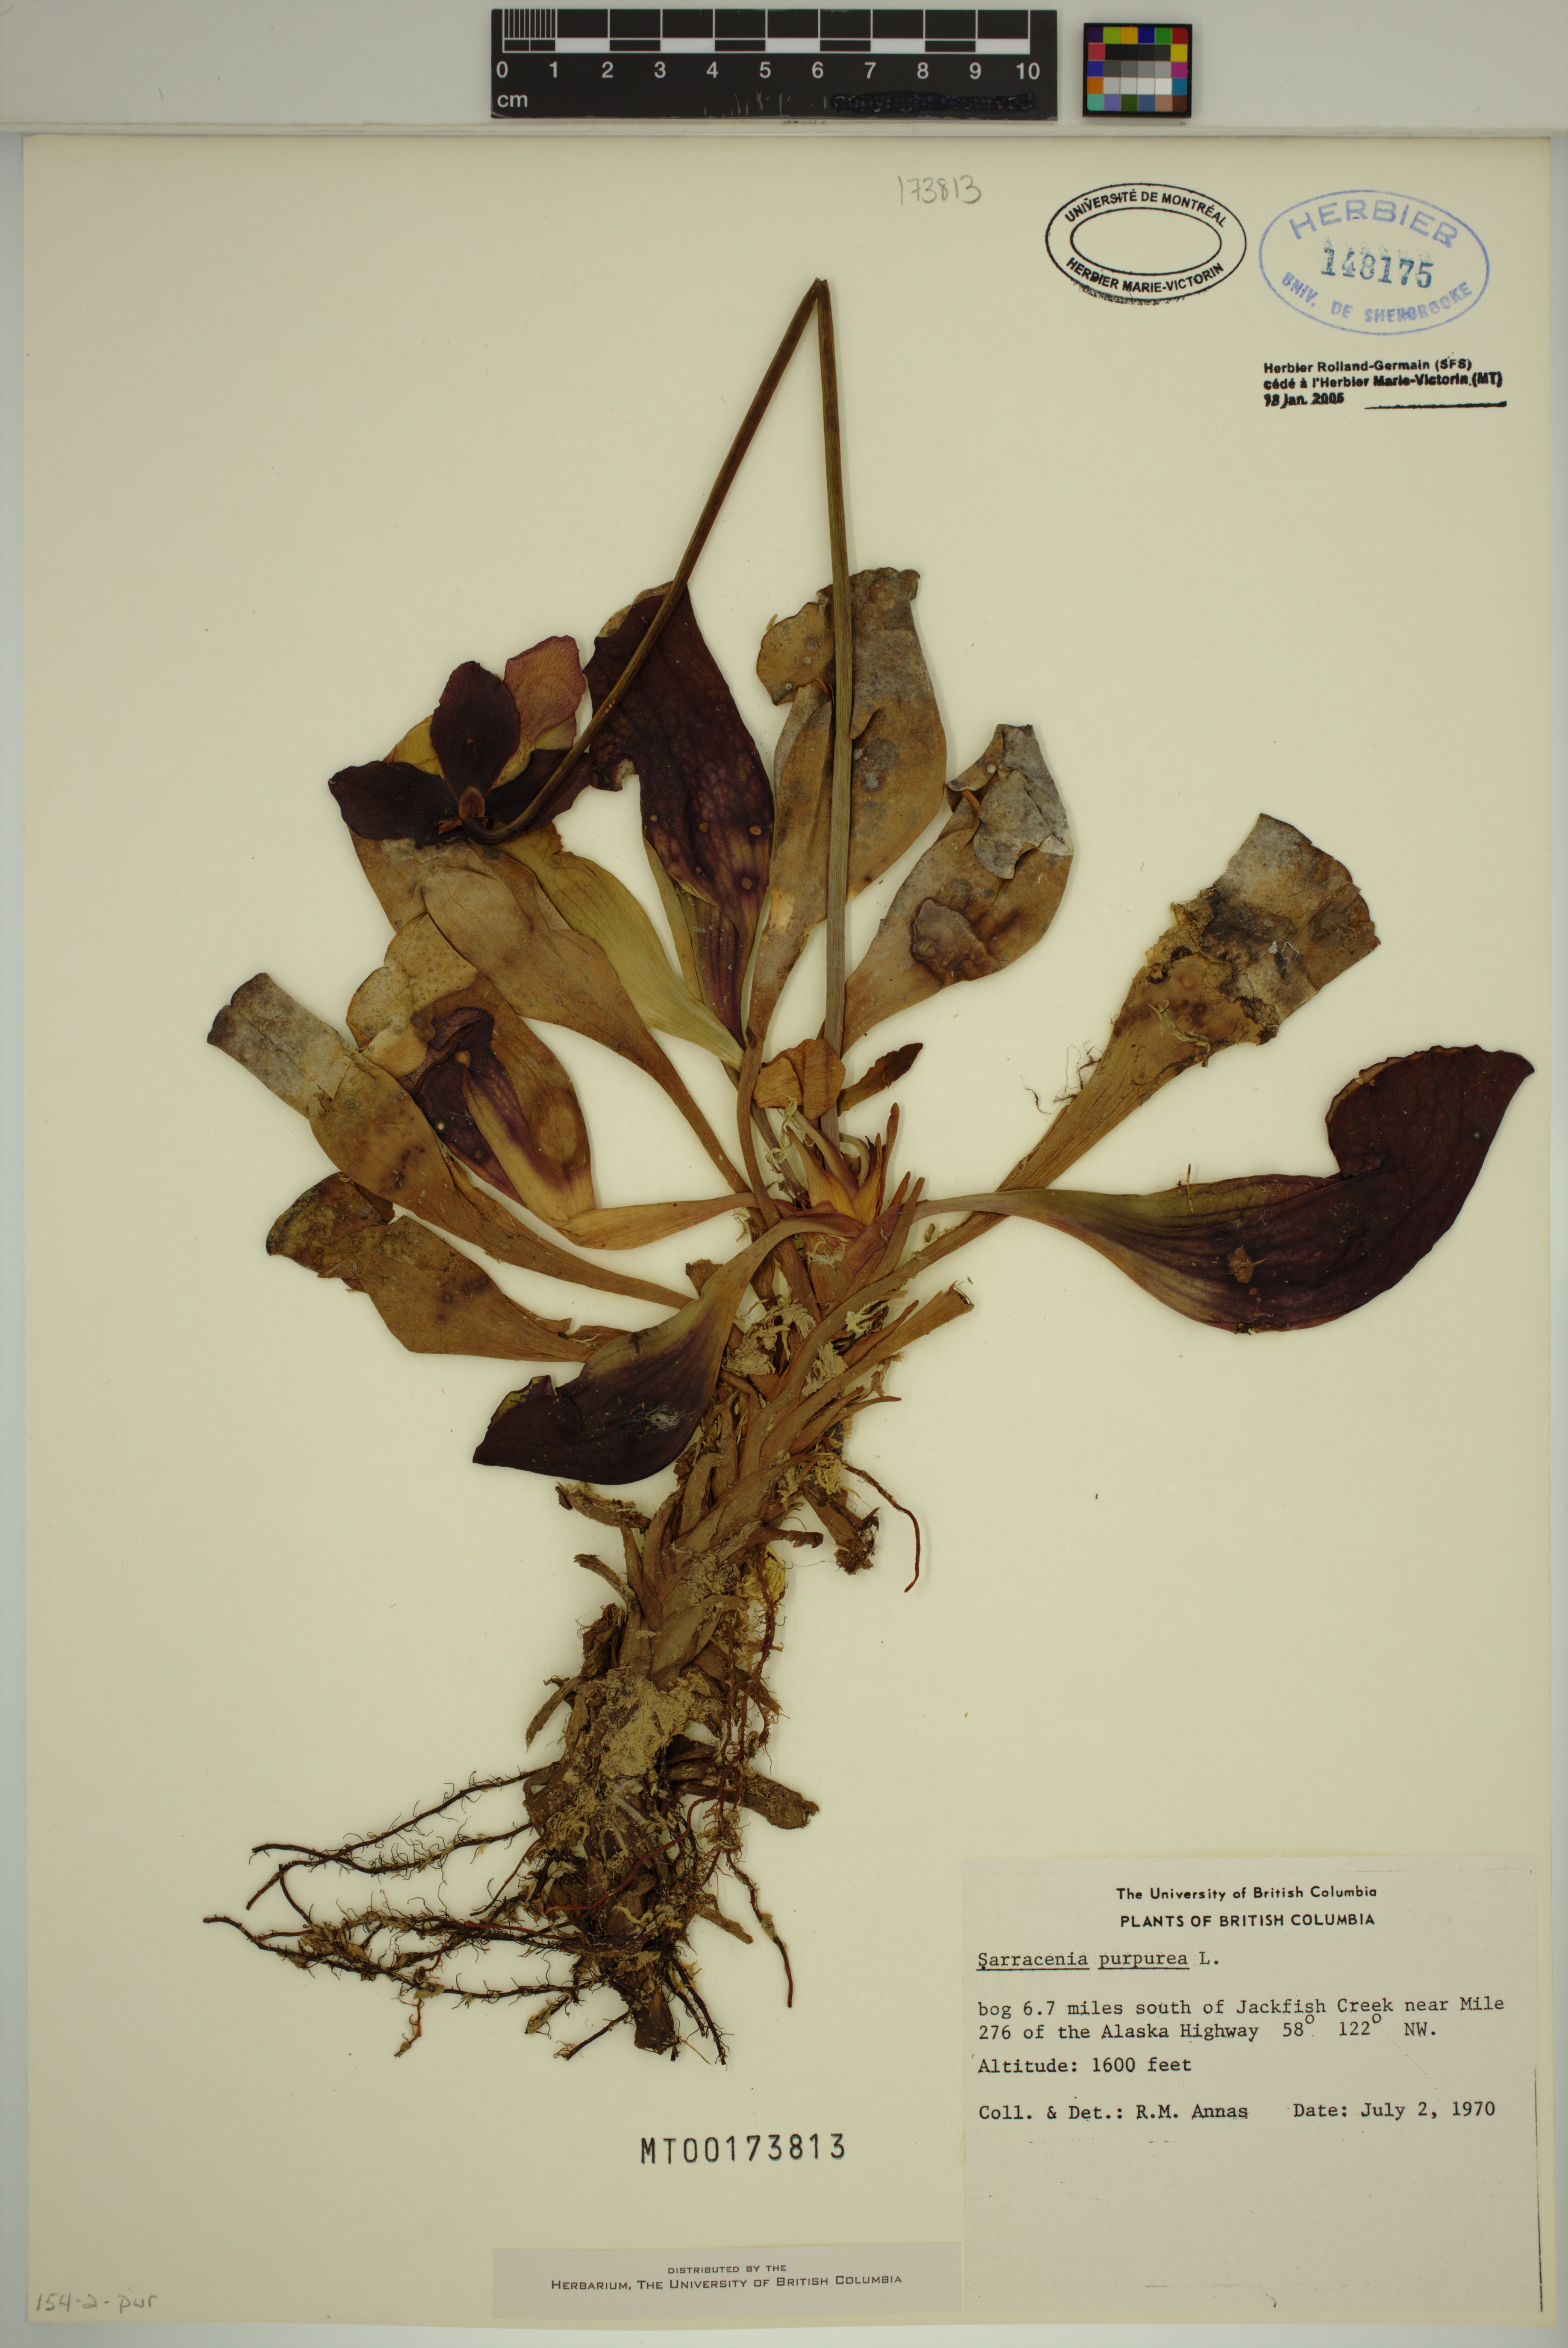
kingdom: Plantae
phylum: Tracheophyta
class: Magnoliopsida
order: Ericales
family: Sarraceniaceae
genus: Sarracenia
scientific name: Sarracenia purpurea
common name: Pitcherplant
